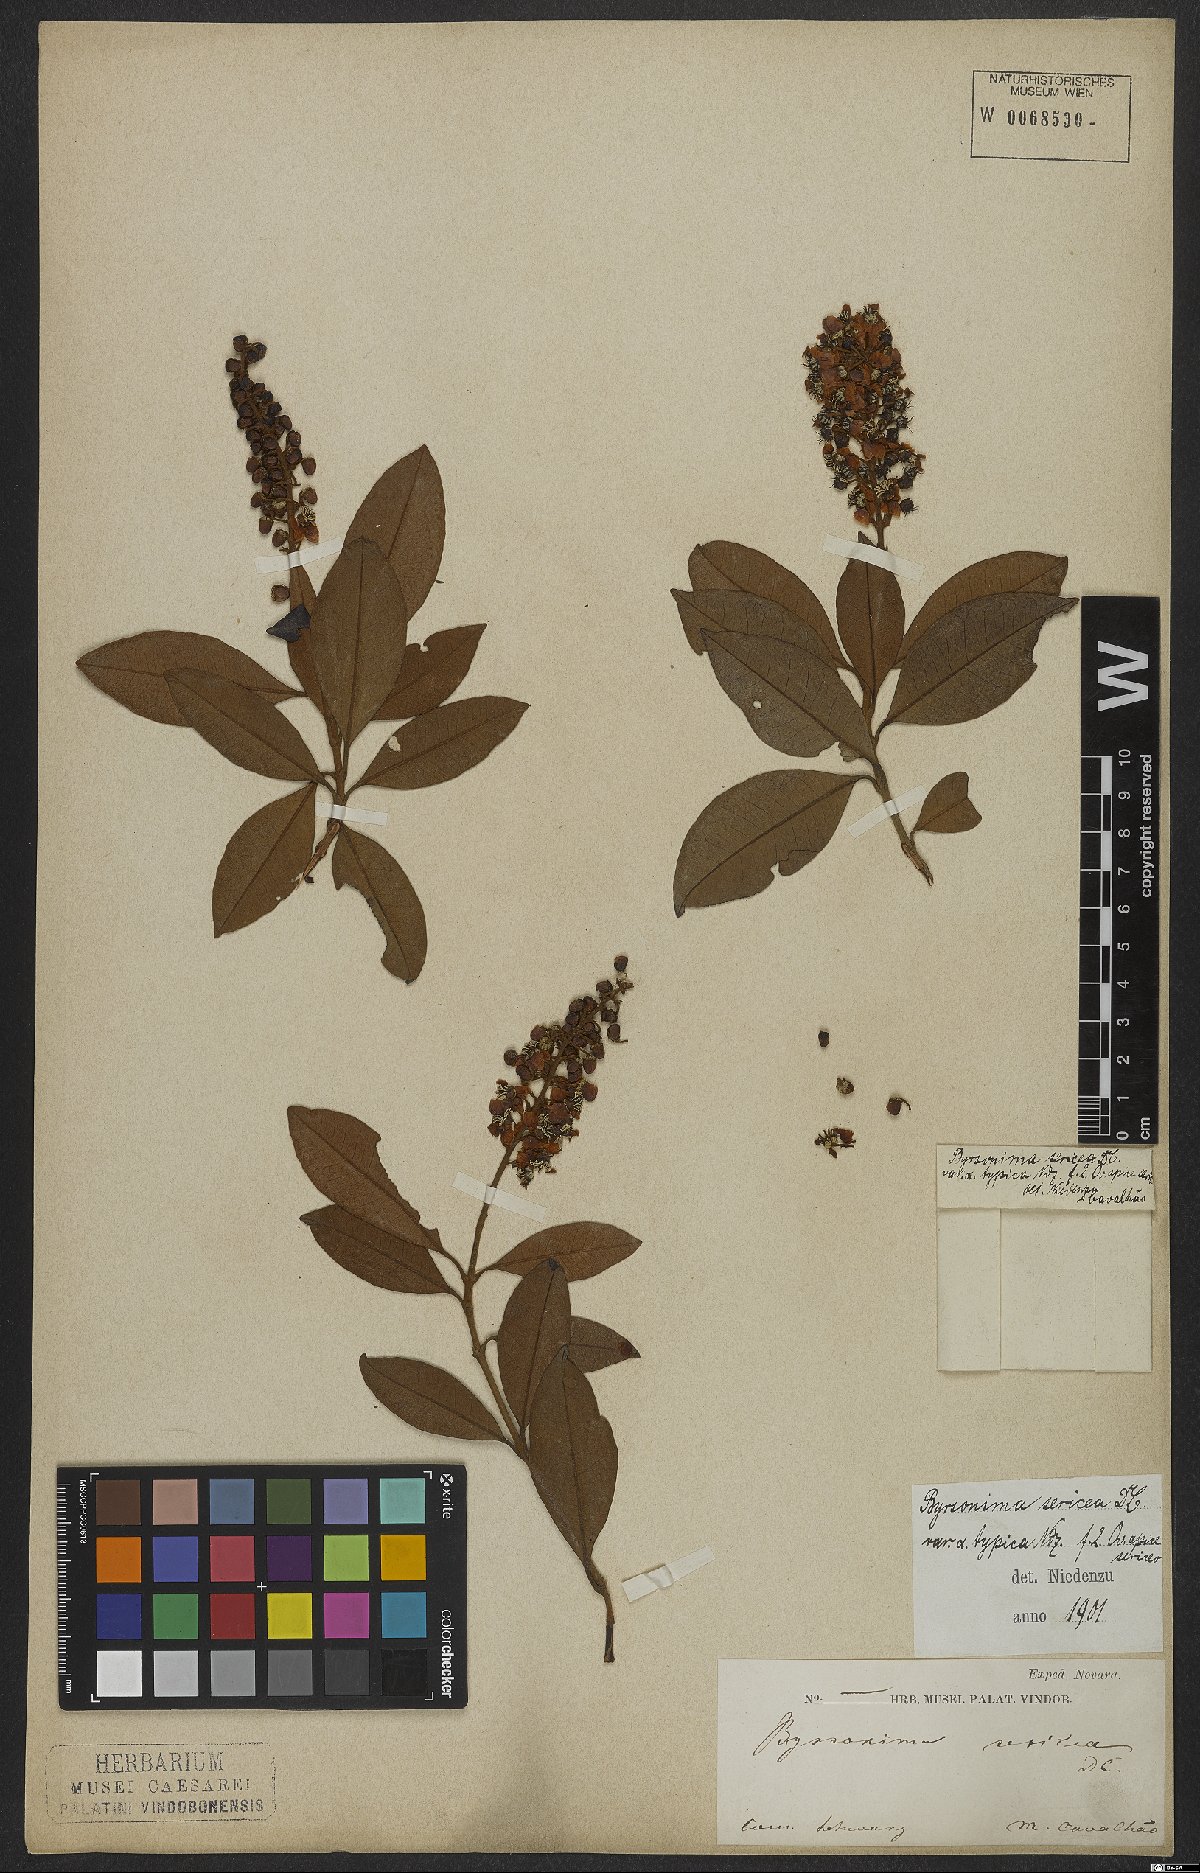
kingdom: Plantae
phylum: Tracheophyta
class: Magnoliopsida
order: Malpighiales
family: Malpighiaceae
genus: Byrsonima
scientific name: Byrsonima sericea
